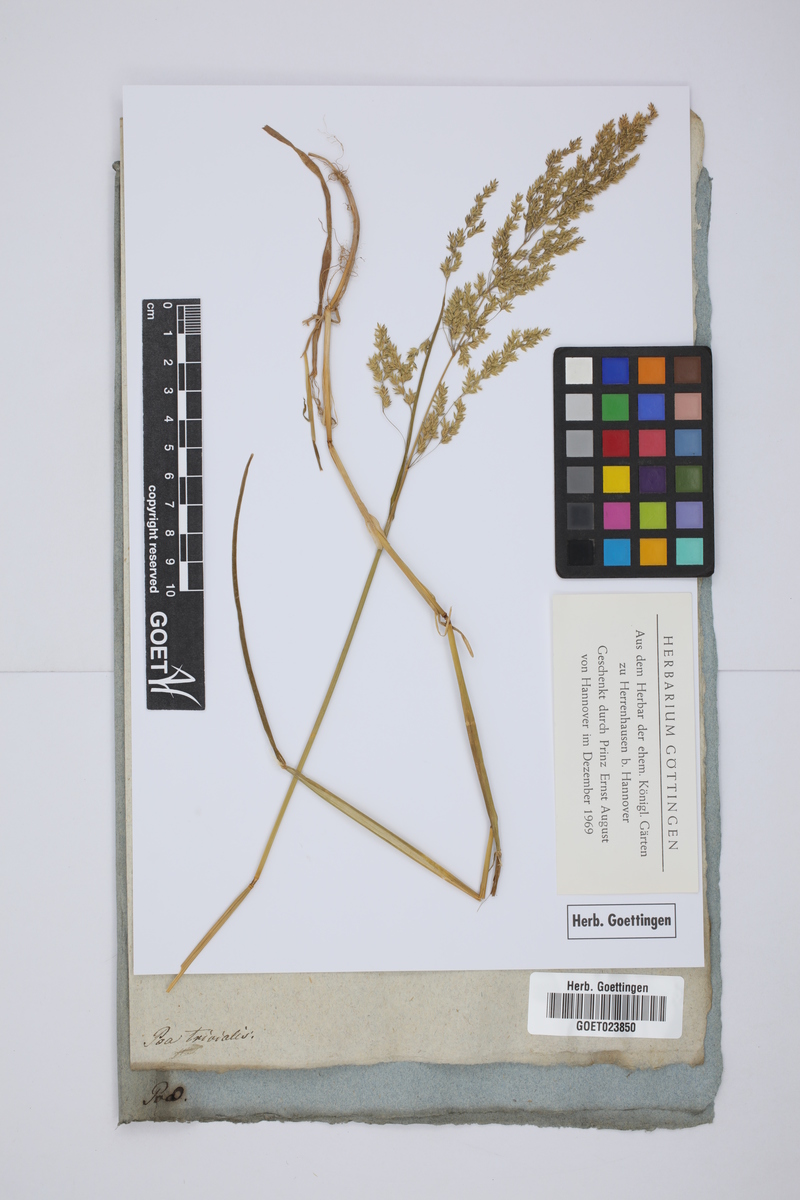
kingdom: Plantae
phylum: Tracheophyta
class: Liliopsida
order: Poales
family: Poaceae
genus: Poa
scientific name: Poa trivialis
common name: Rough bluegrass
